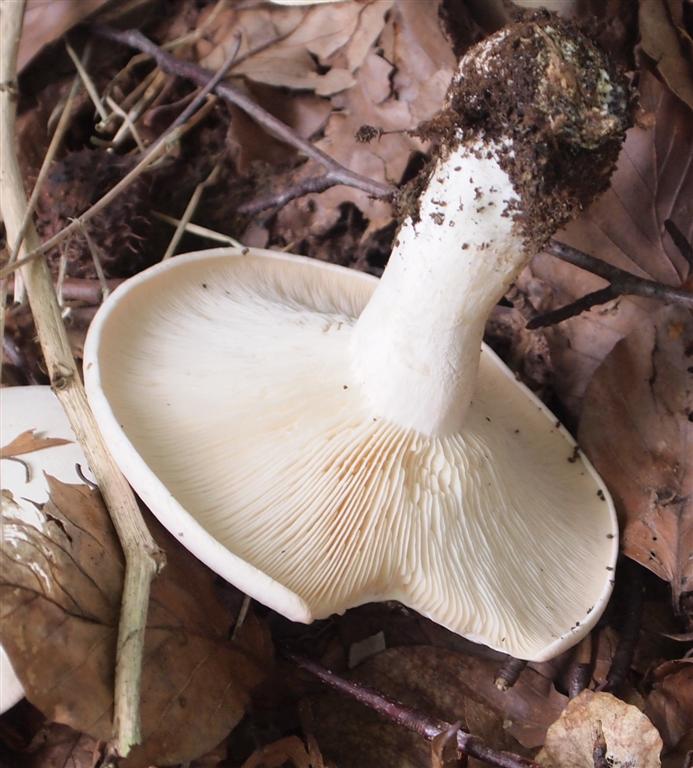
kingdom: Fungi
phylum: Basidiomycota
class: Agaricomycetes
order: Agaricales
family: Tricholomataceae
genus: Aspropaxillus
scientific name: Aspropaxillus giganteus
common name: kæmpe-tragtridderhat
